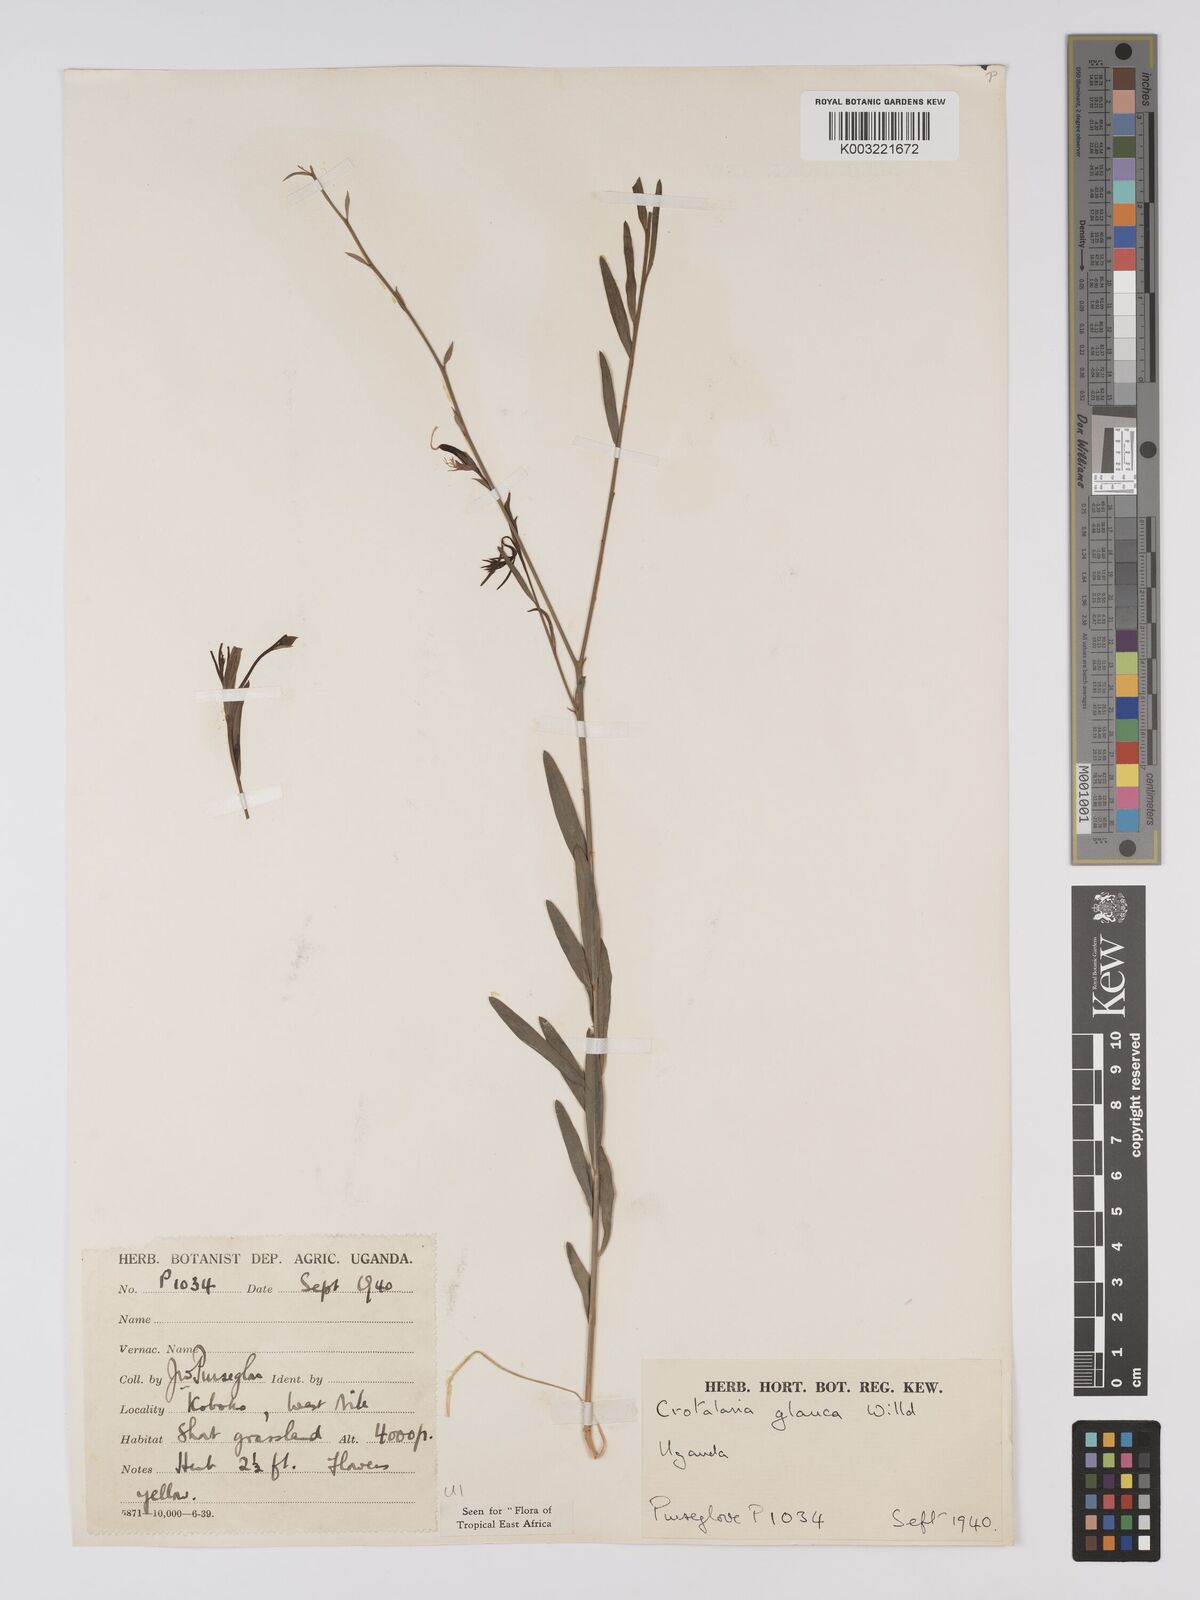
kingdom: Plantae
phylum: Tracheophyta
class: Magnoliopsida
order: Fabales
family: Fabaceae
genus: Crotalaria
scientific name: Crotalaria glauca
